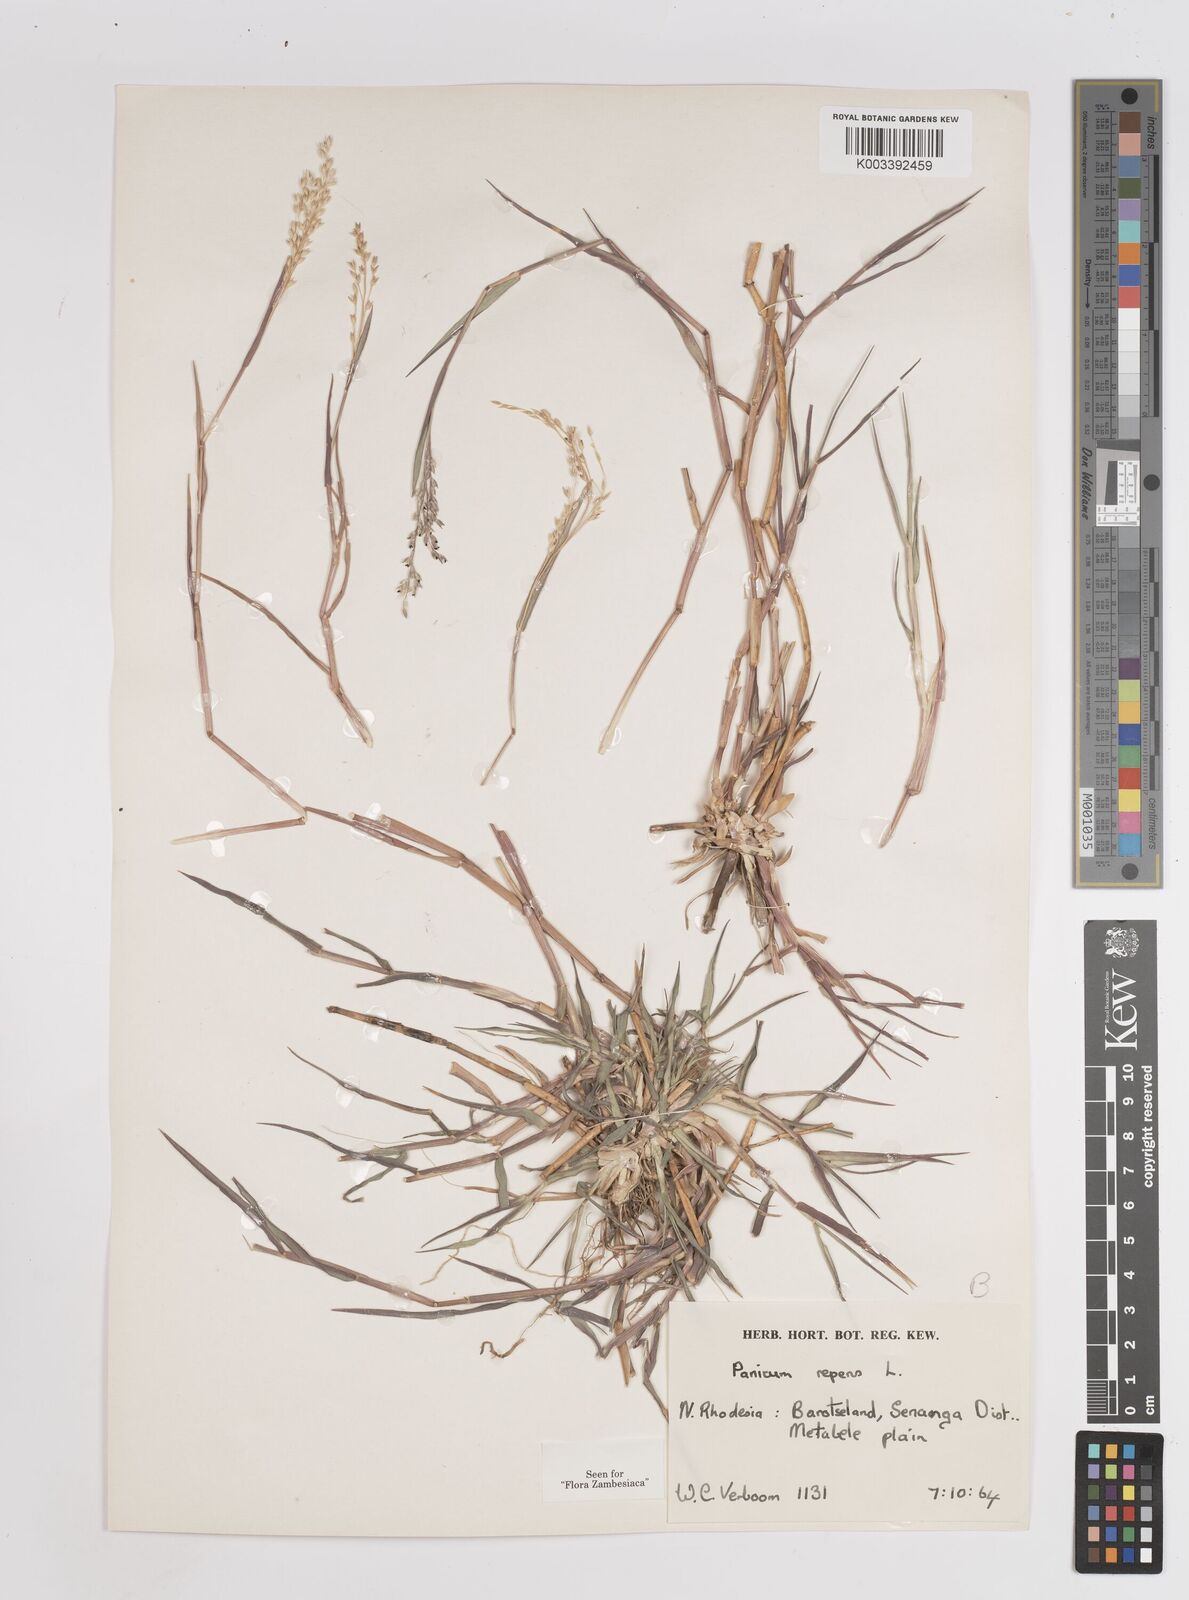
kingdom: Plantae
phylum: Tracheophyta
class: Liliopsida
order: Poales
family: Poaceae
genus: Panicum
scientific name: Panicum repens
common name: Torpedo grass
